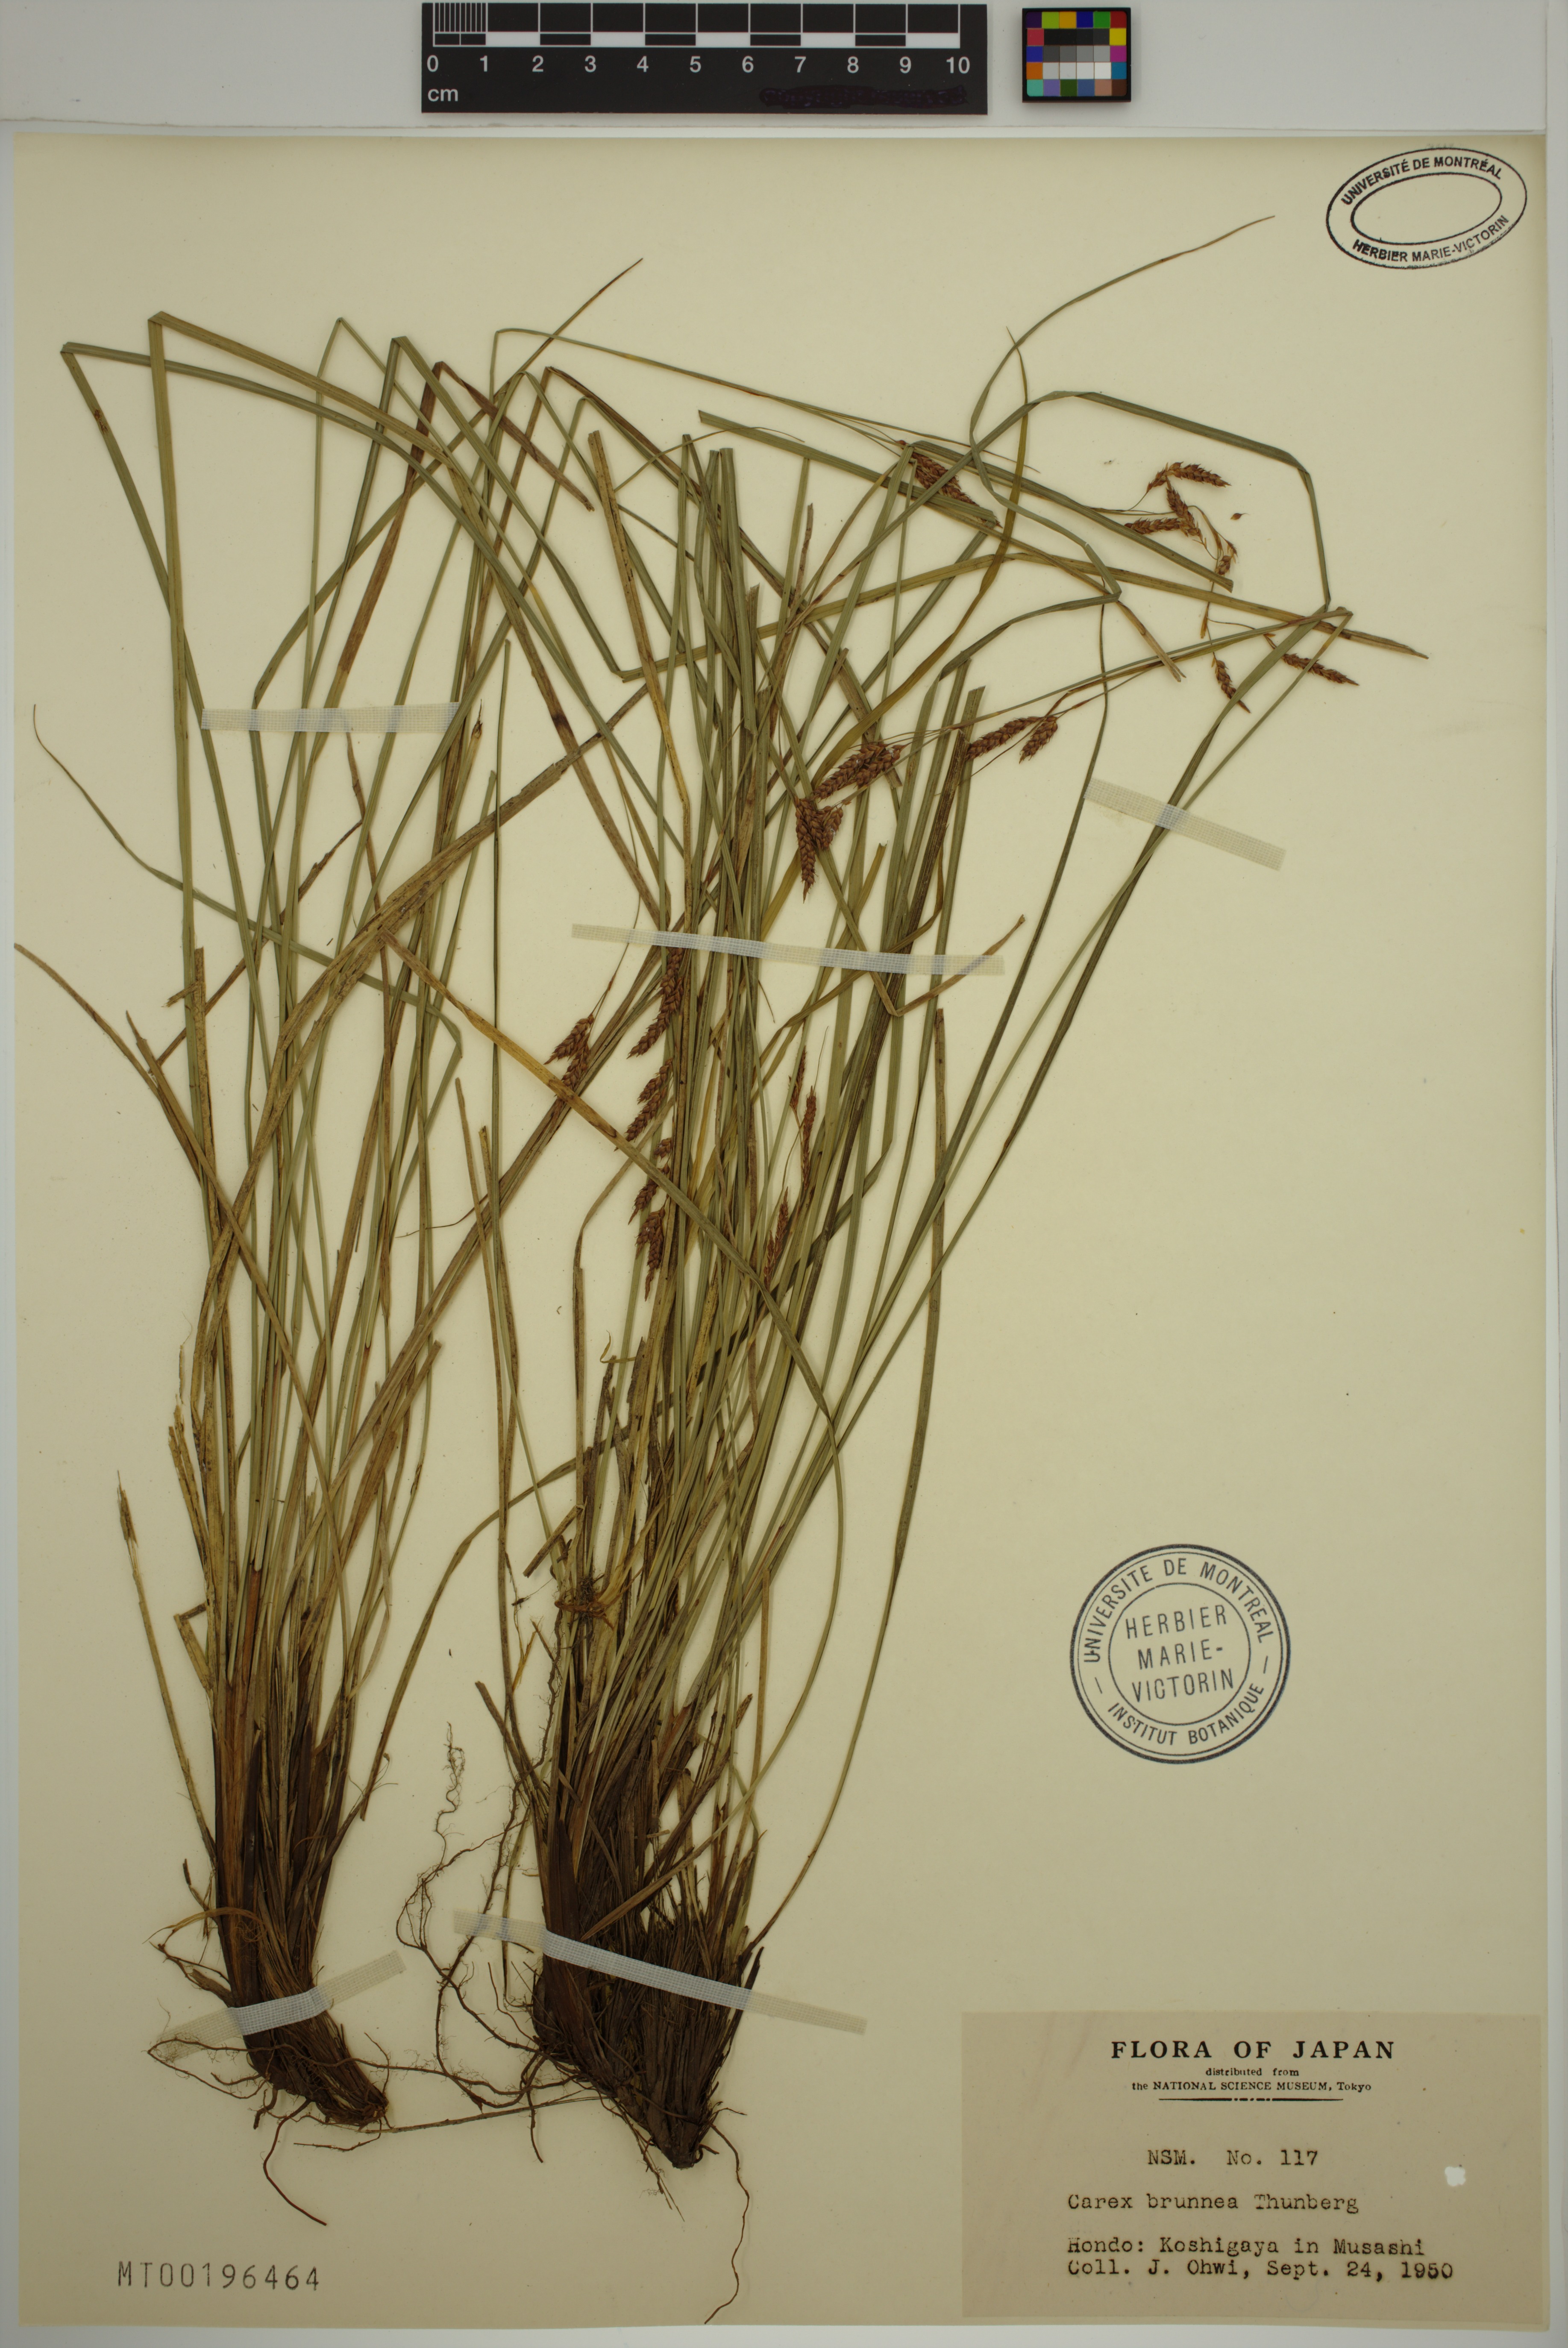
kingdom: Plantae
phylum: Tracheophyta
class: Liliopsida
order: Poales
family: Cyperaceae
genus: Carex
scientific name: Carex brunnea
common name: Greater brown sedge
